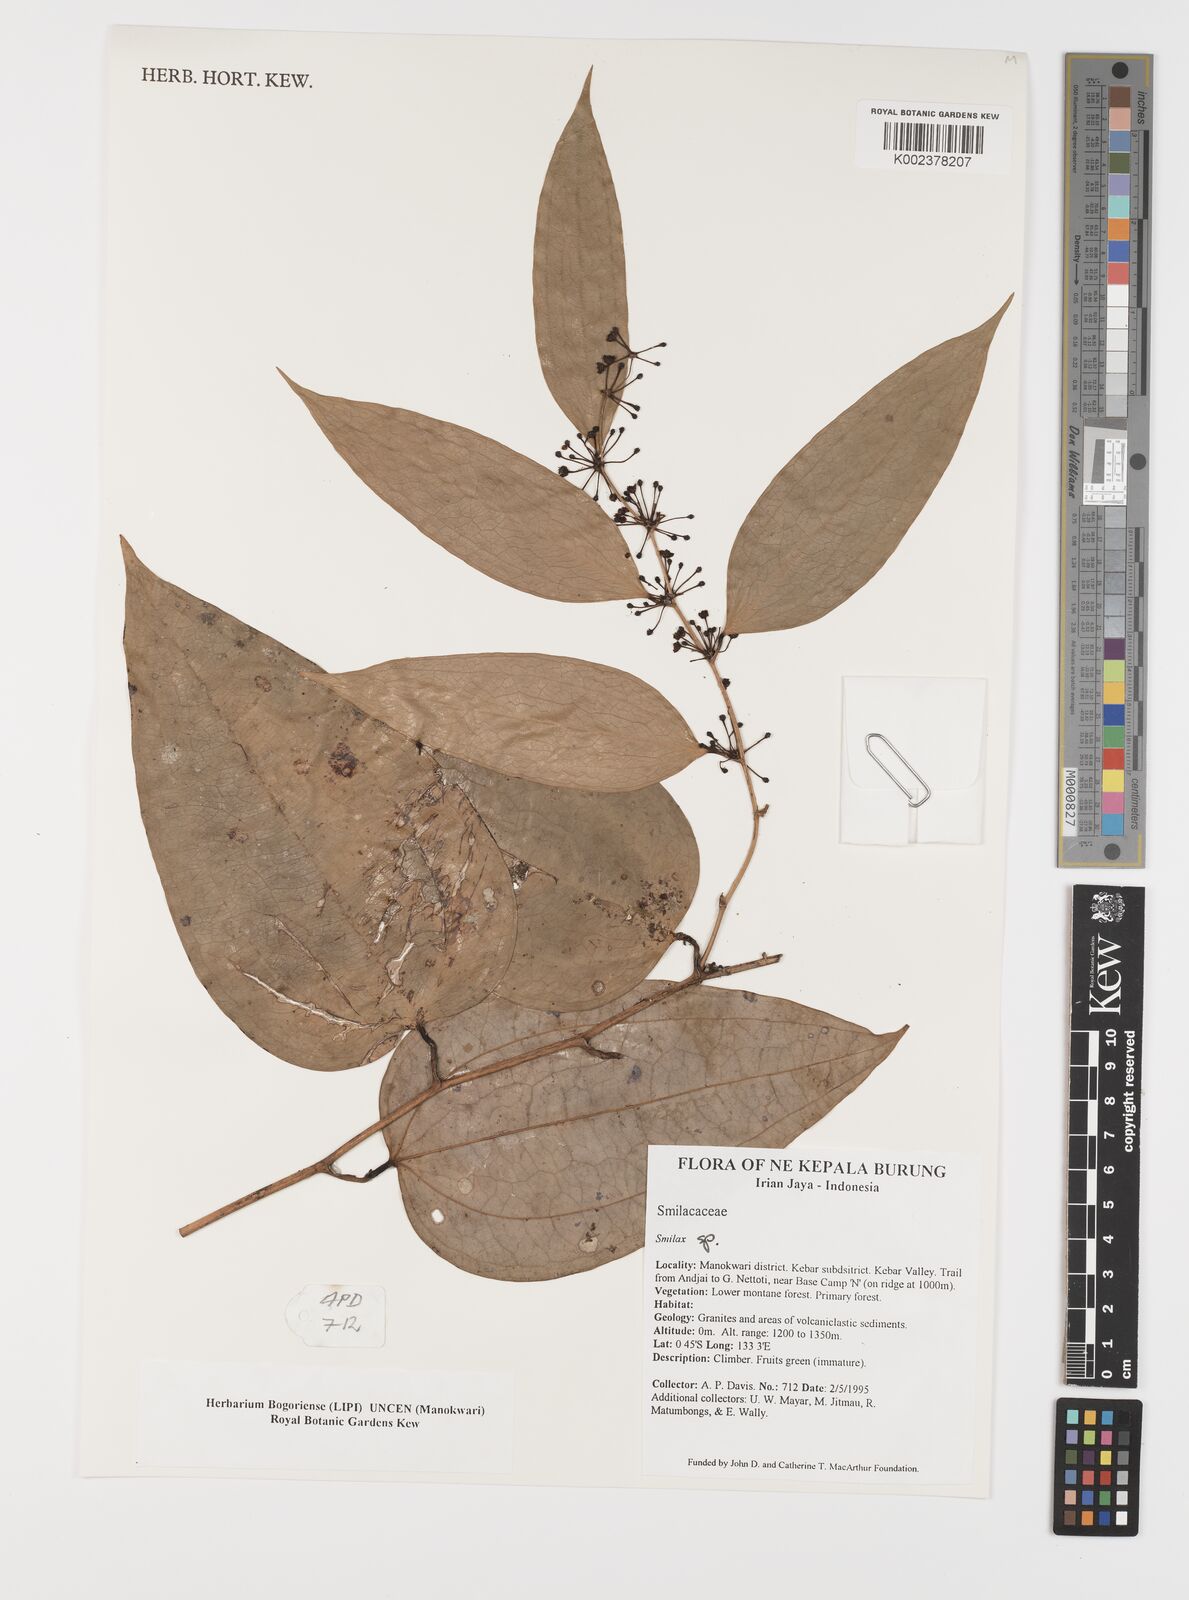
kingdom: Plantae
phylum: Tracheophyta
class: Liliopsida
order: Liliales
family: Smilacaceae
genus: Smilax
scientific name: Smilax
